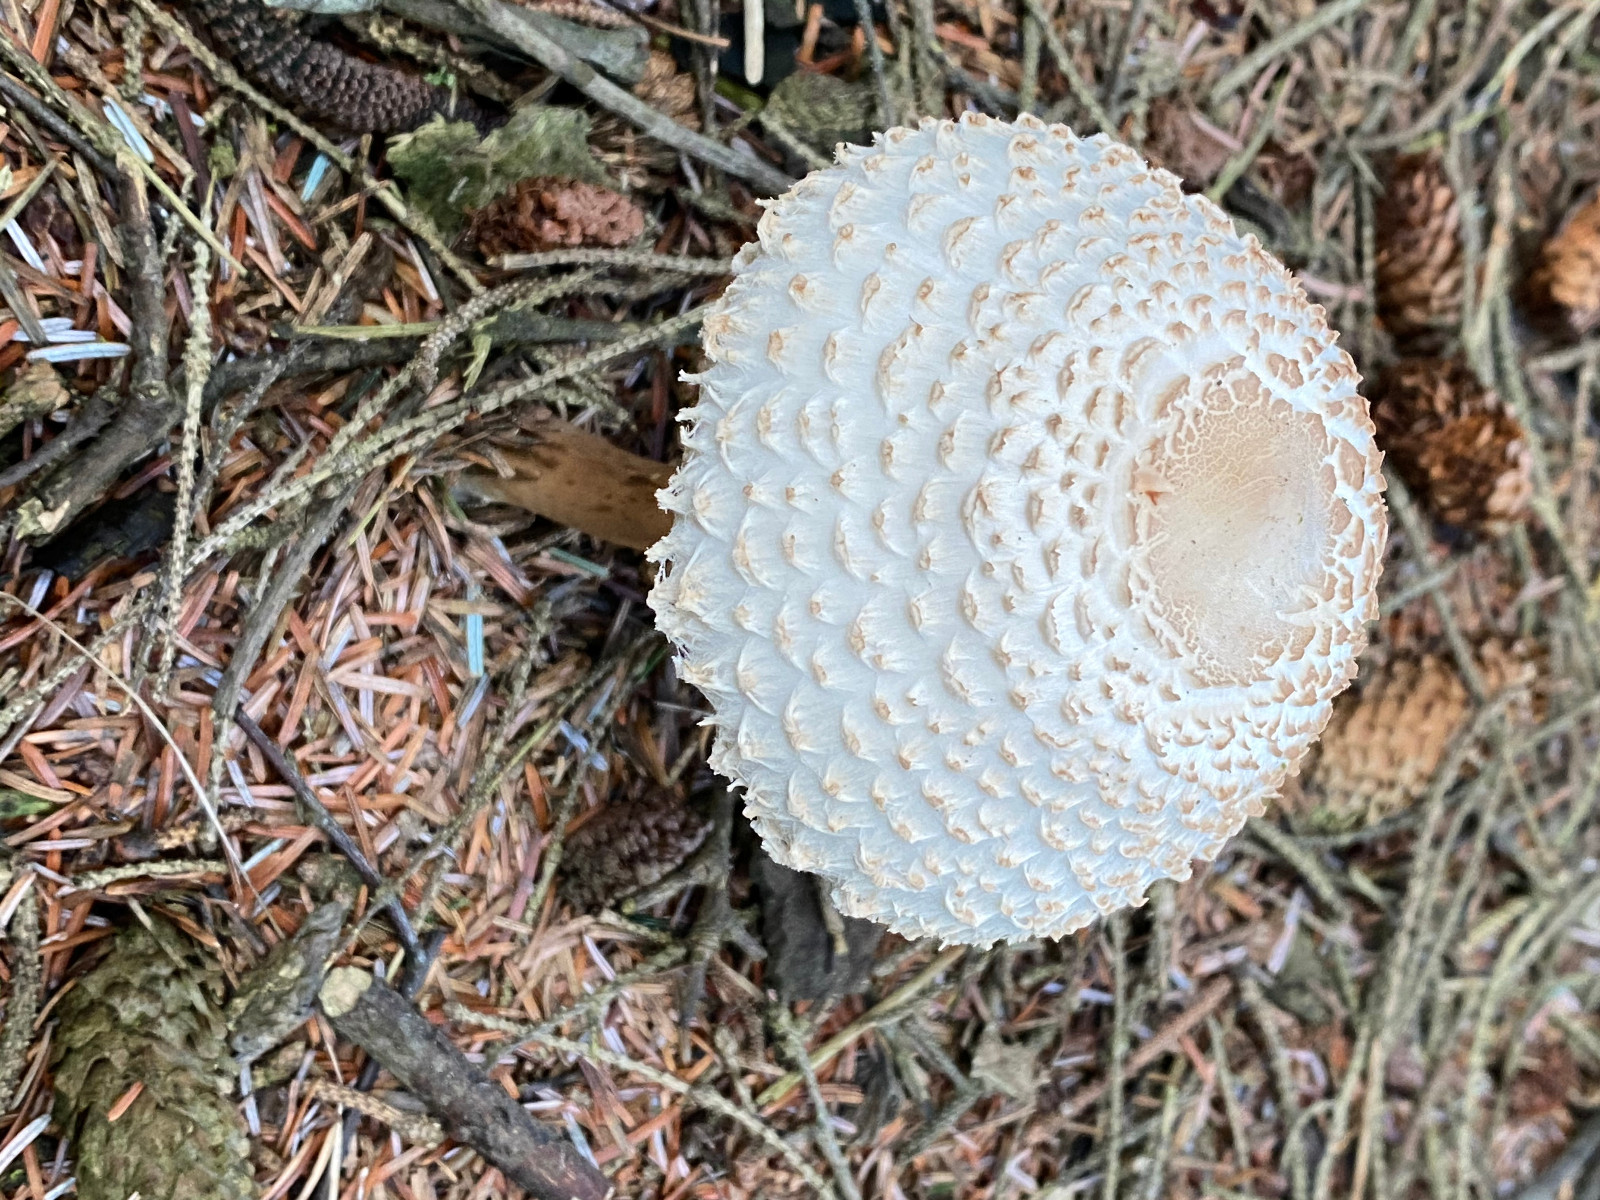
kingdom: Fungi
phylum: Basidiomycota
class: Agaricomycetes
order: Agaricales
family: Agaricaceae
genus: Leucoagaricus
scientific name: Leucoagaricus nympharum
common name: gran-silkehat
